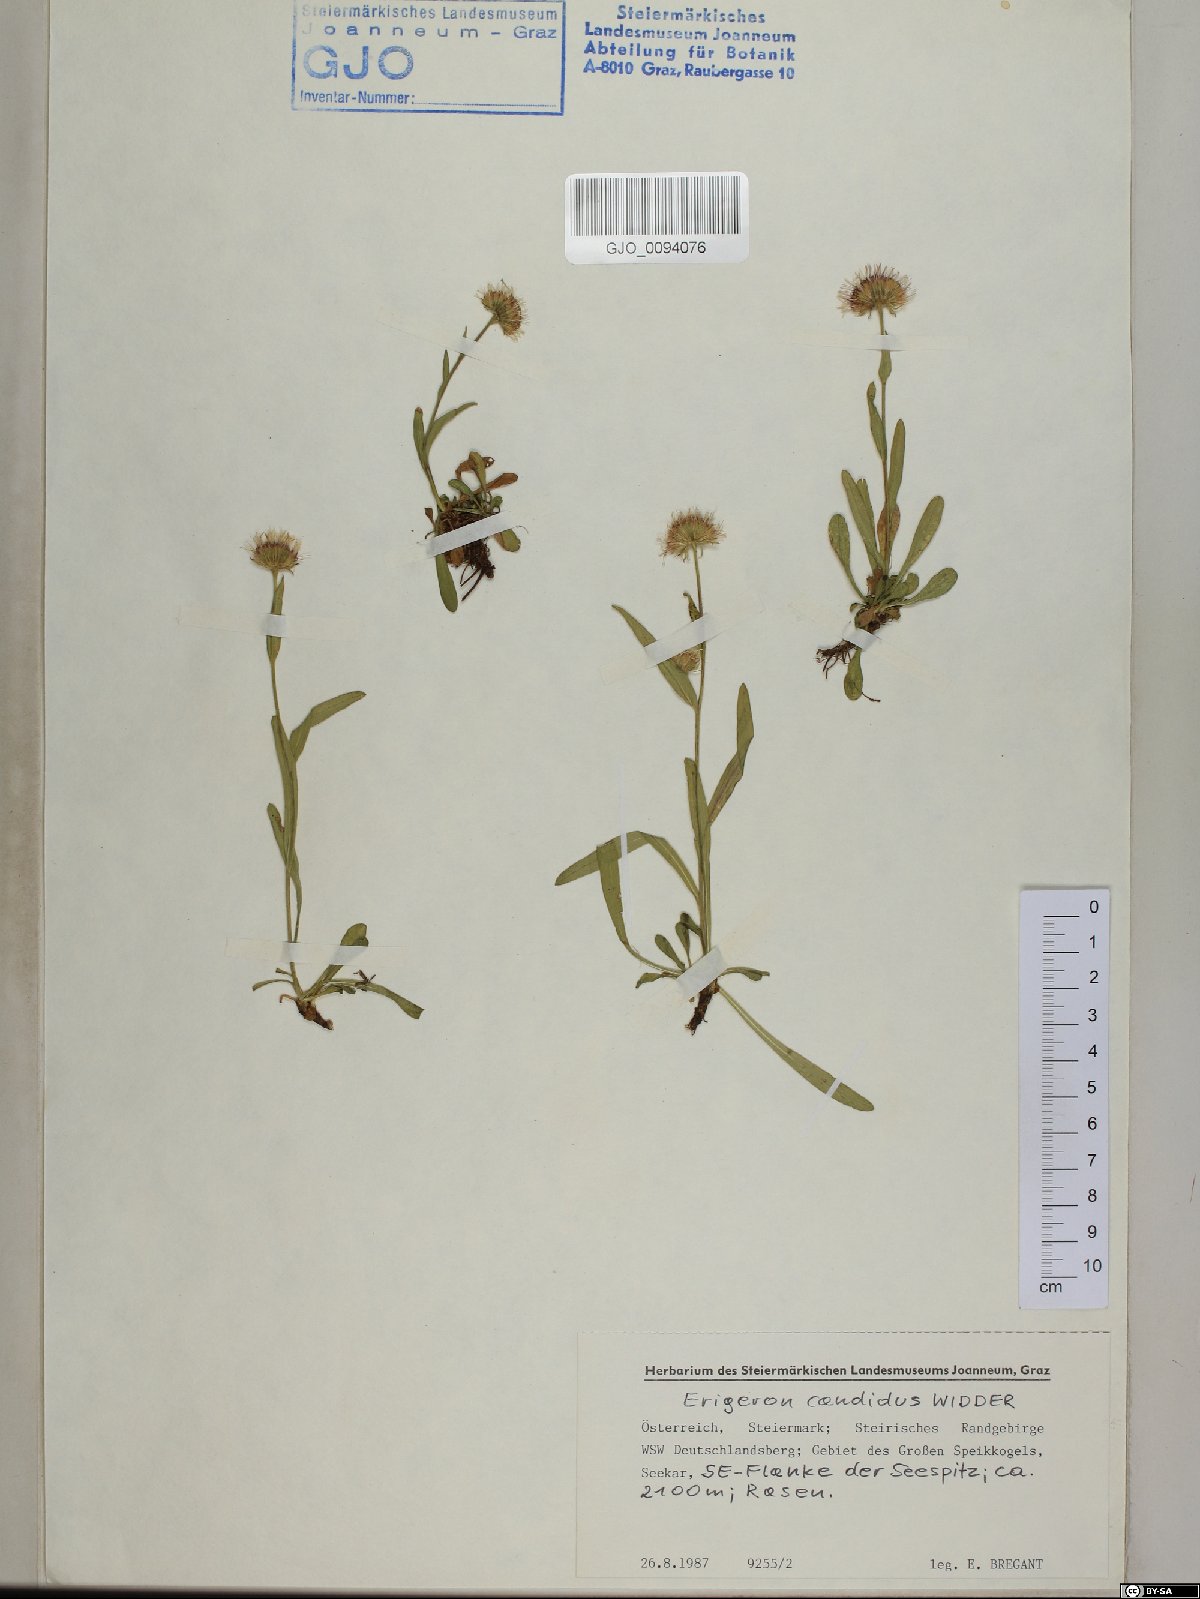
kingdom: Plantae
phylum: Tracheophyta
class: Magnoliopsida
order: Asterales
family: Asteraceae
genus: Erigeron
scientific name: Erigeron glabratus
